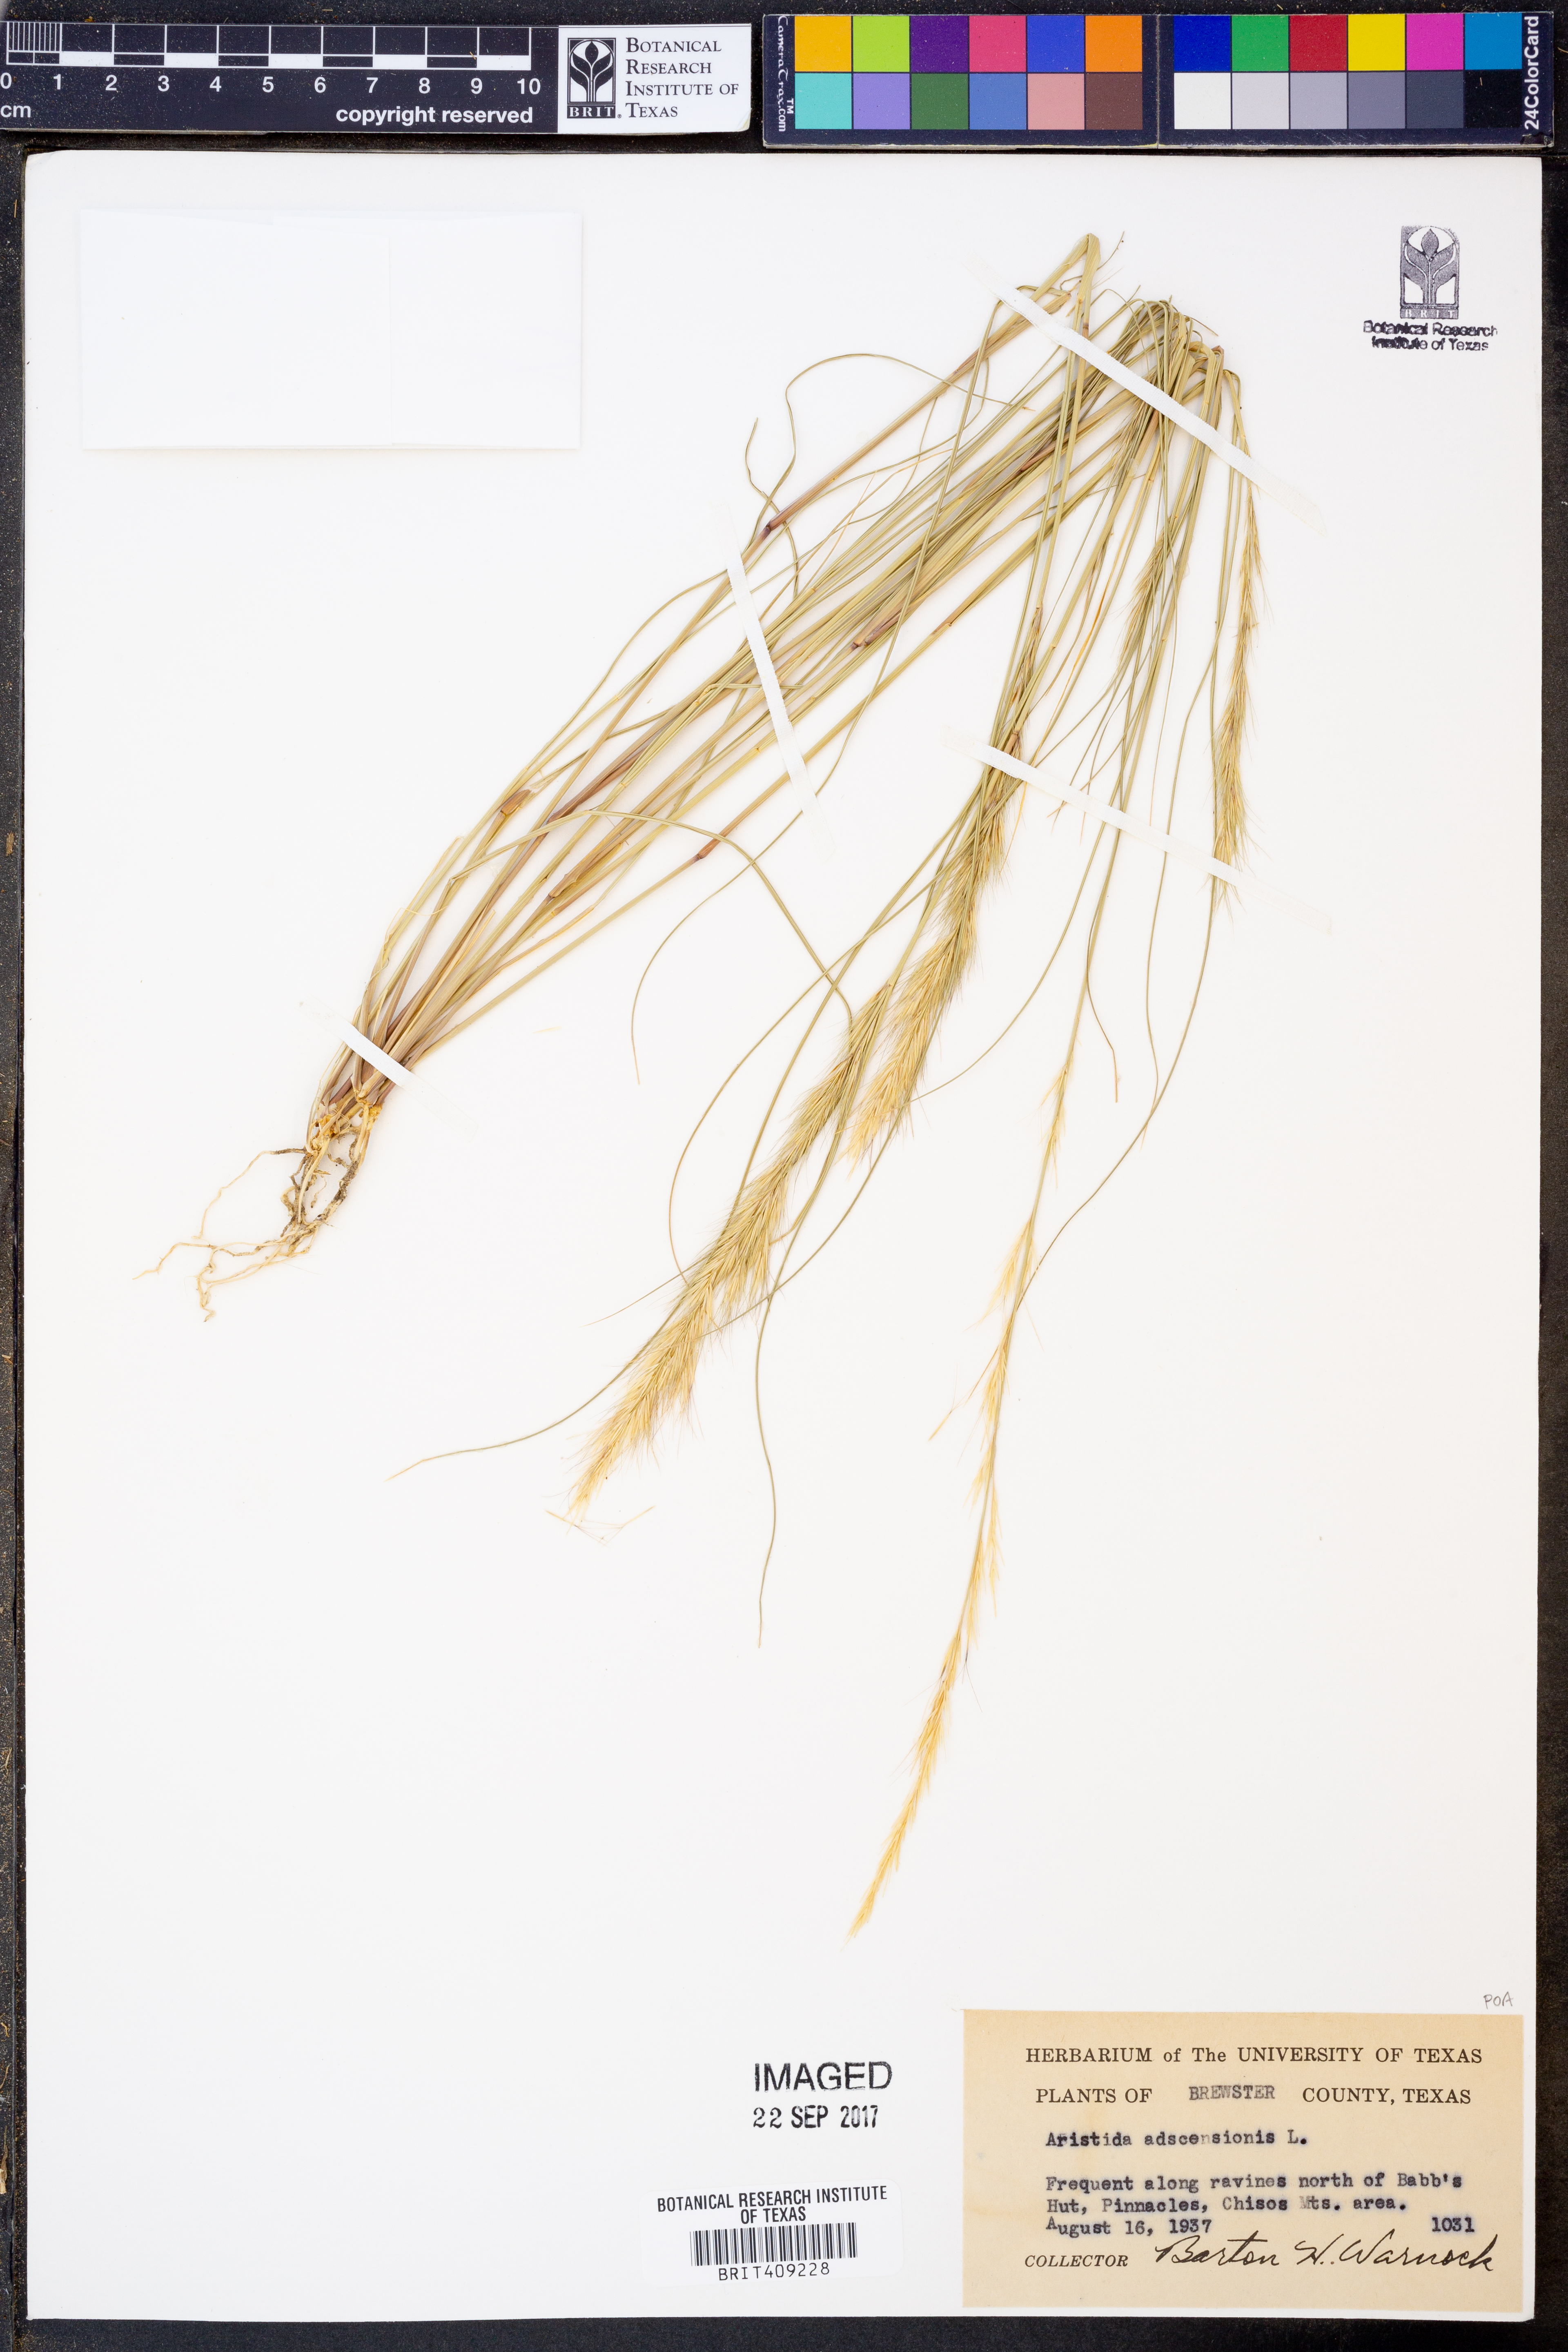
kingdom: Plantae
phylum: Tracheophyta
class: Liliopsida
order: Poales
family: Poaceae
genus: Aristida
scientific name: Aristida adscensionis
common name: Sixweeks threeawn
